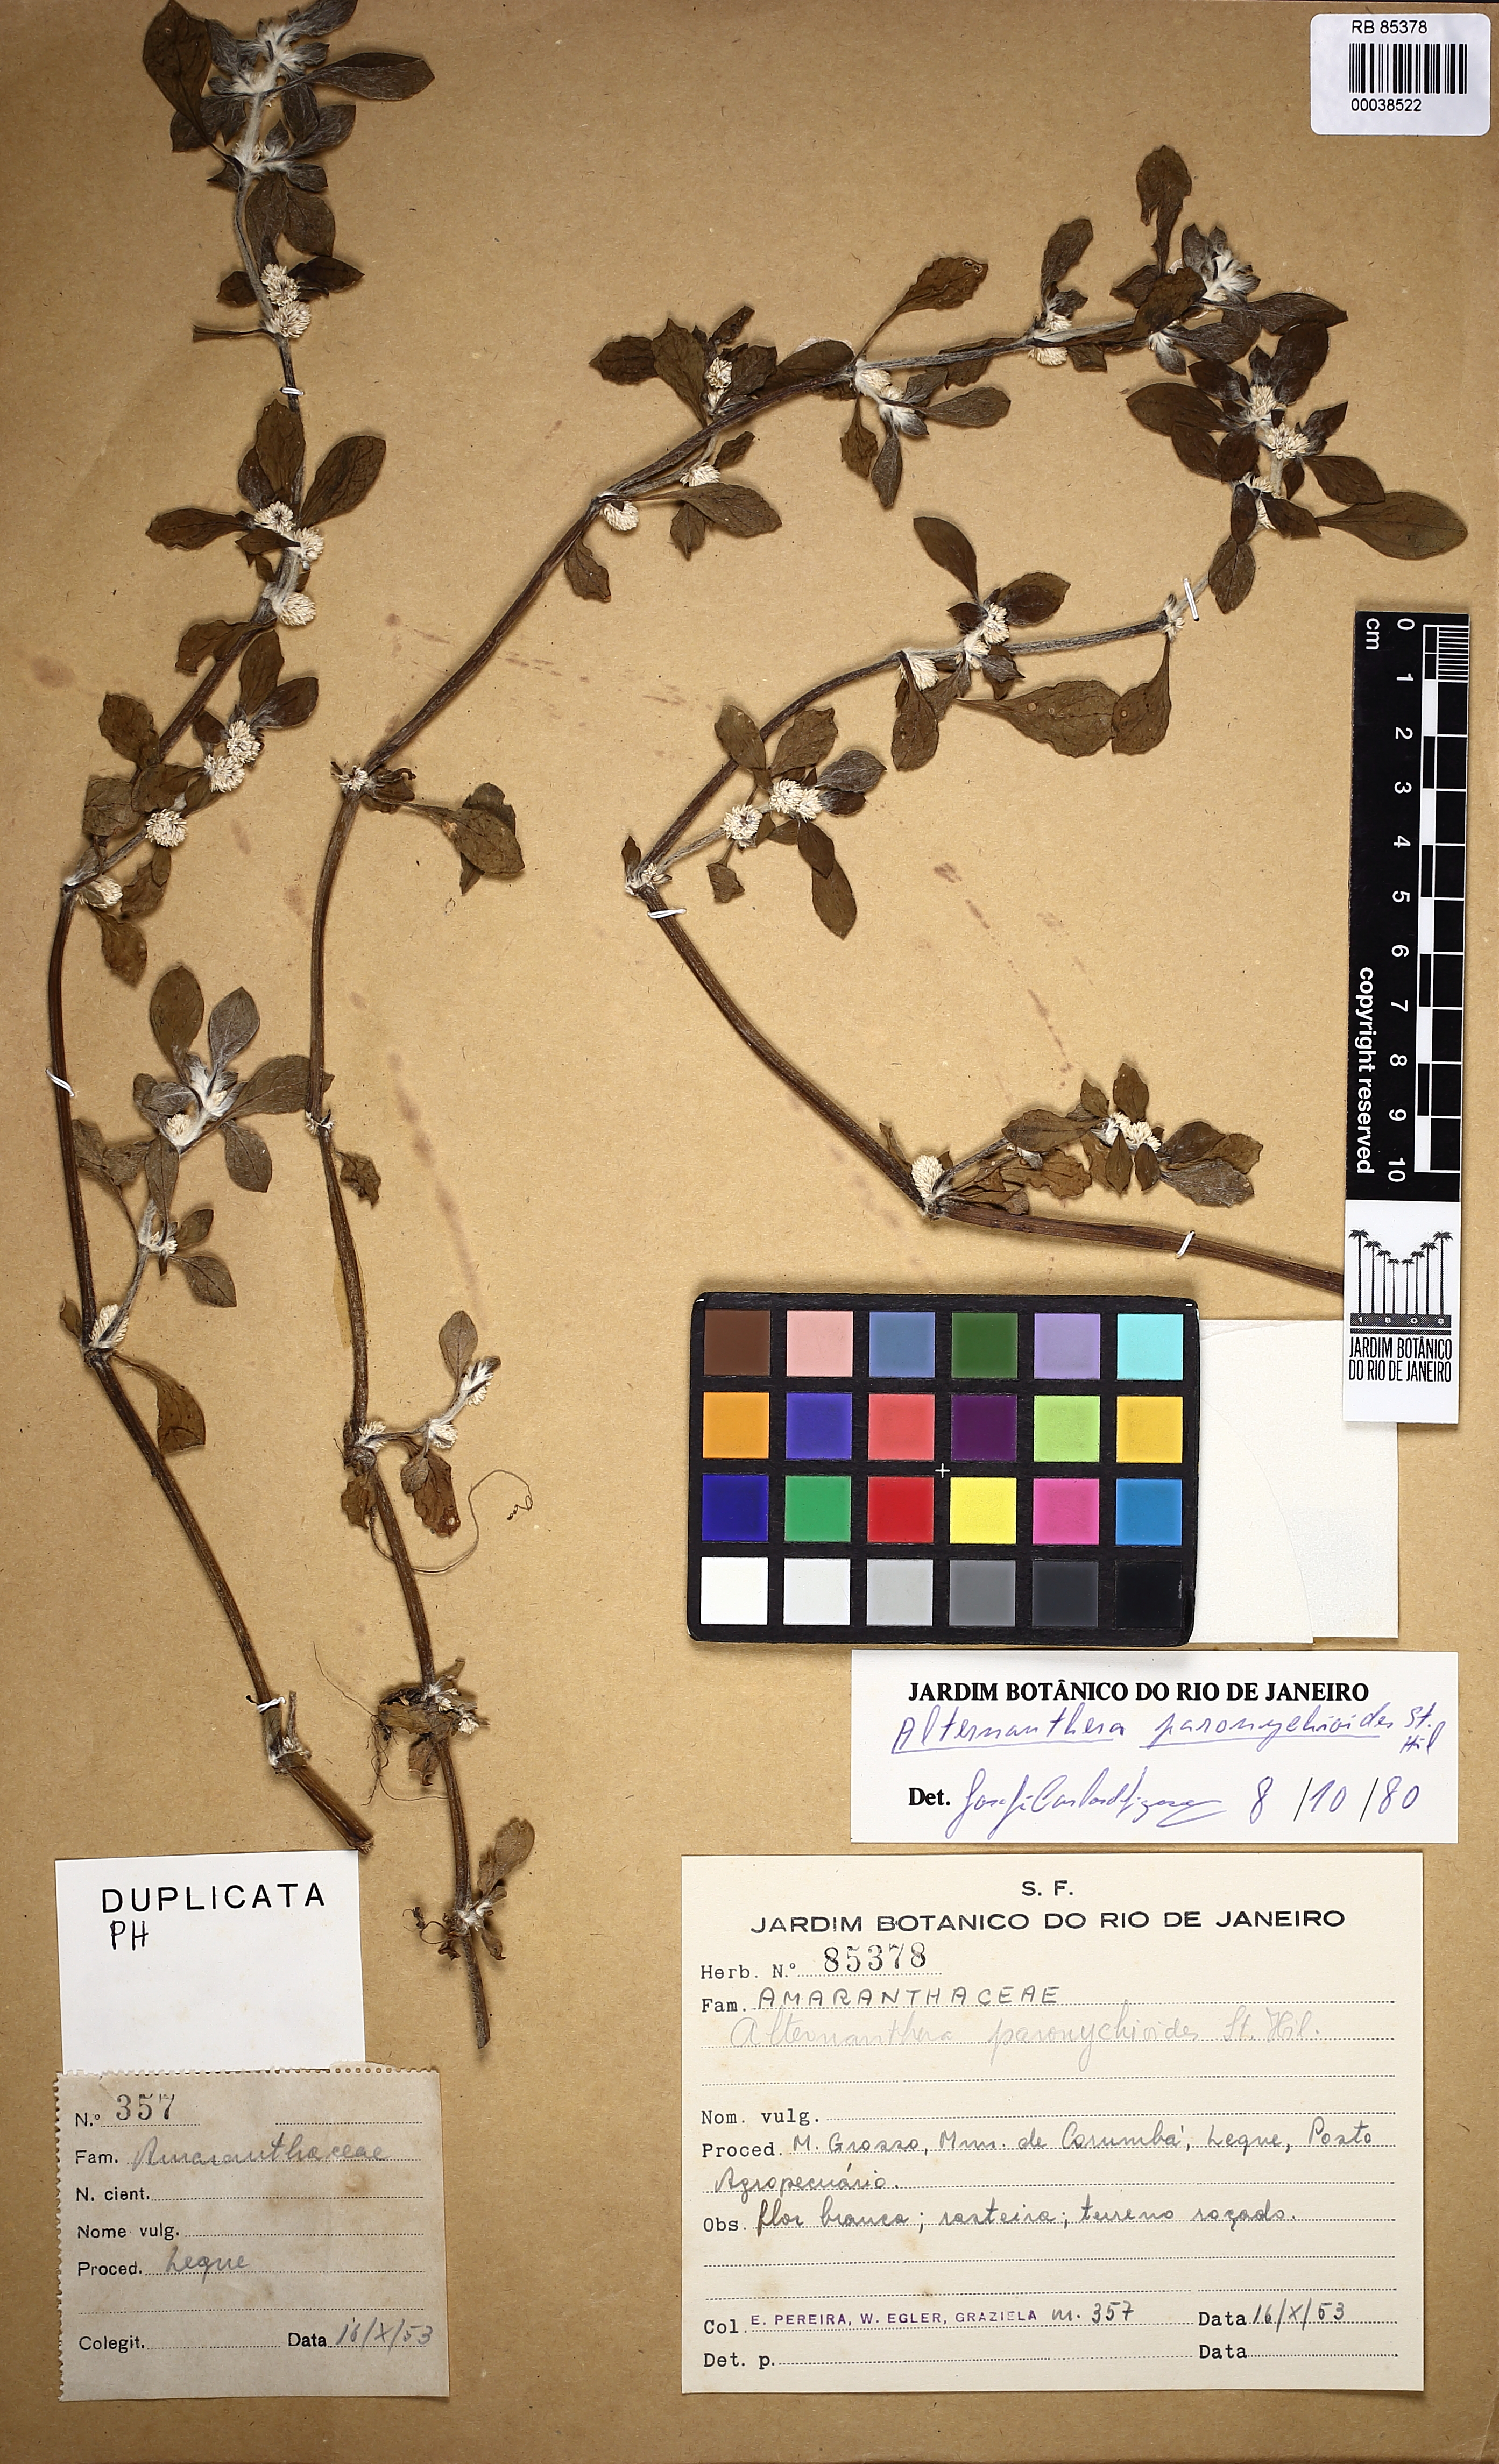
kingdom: Plantae
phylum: Tracheophyta
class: Magnoliopsida
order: Caryophyllales
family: Amaranthaceae
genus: Alternanthera
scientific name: Alternanthera paronychioides
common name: Smooth joyweed
